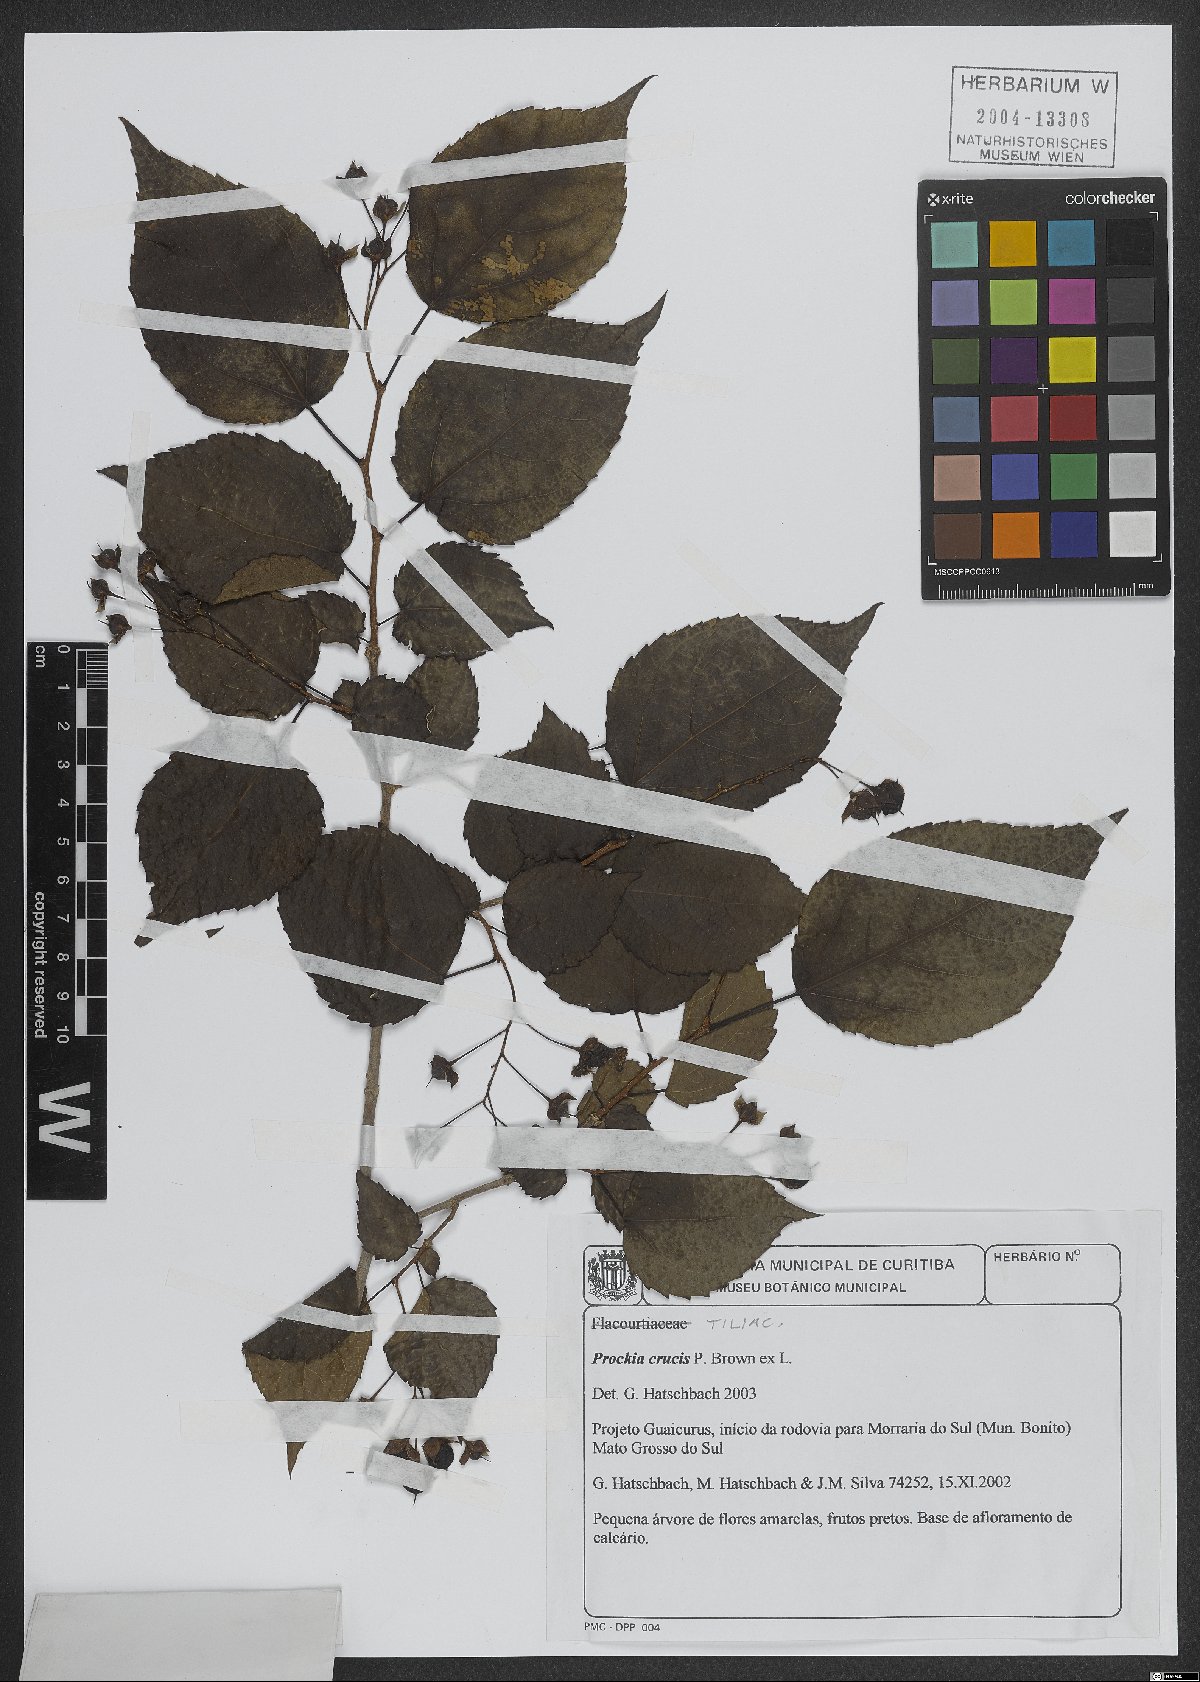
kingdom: Plantae
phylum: Tracheophyta
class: Magnoliopsida
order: Malpighiales
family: Salicaceae
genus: Prockia
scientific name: Prockia crucis
